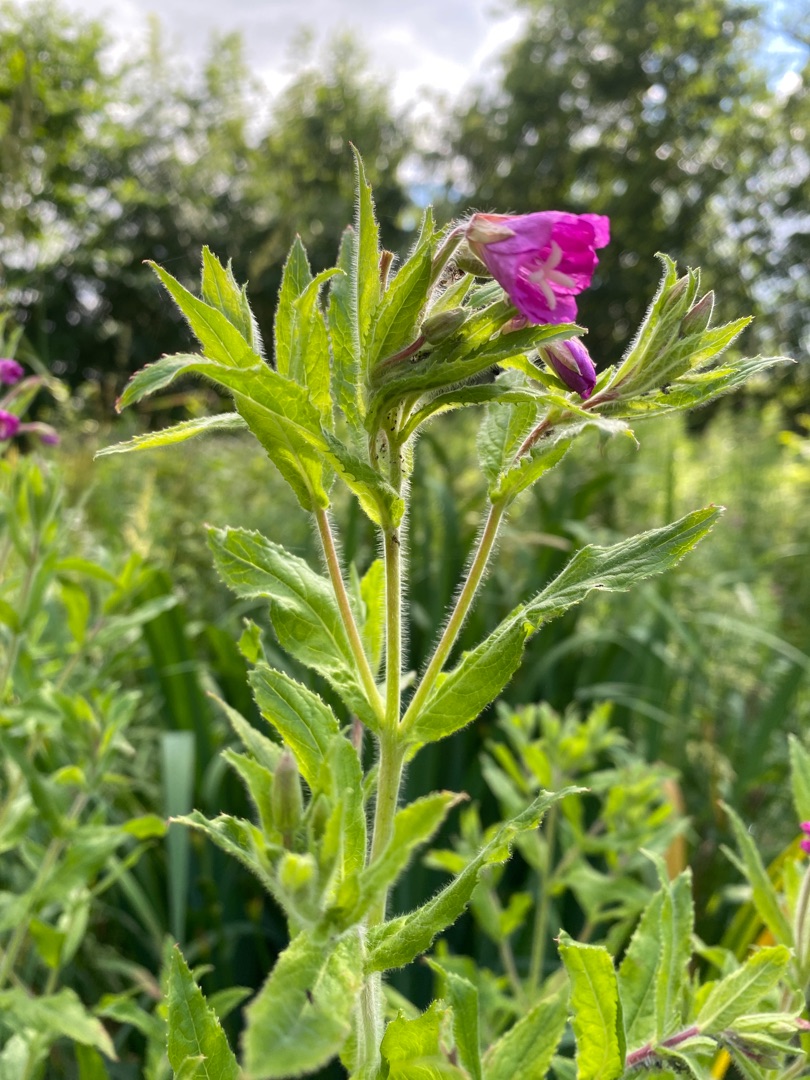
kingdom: Plantae
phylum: Tracheophyta
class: Magnoliopsida
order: Myrtales
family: Onagraceae
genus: Epilobium
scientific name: Epilobium hirsutum
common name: Lådden dueurt
